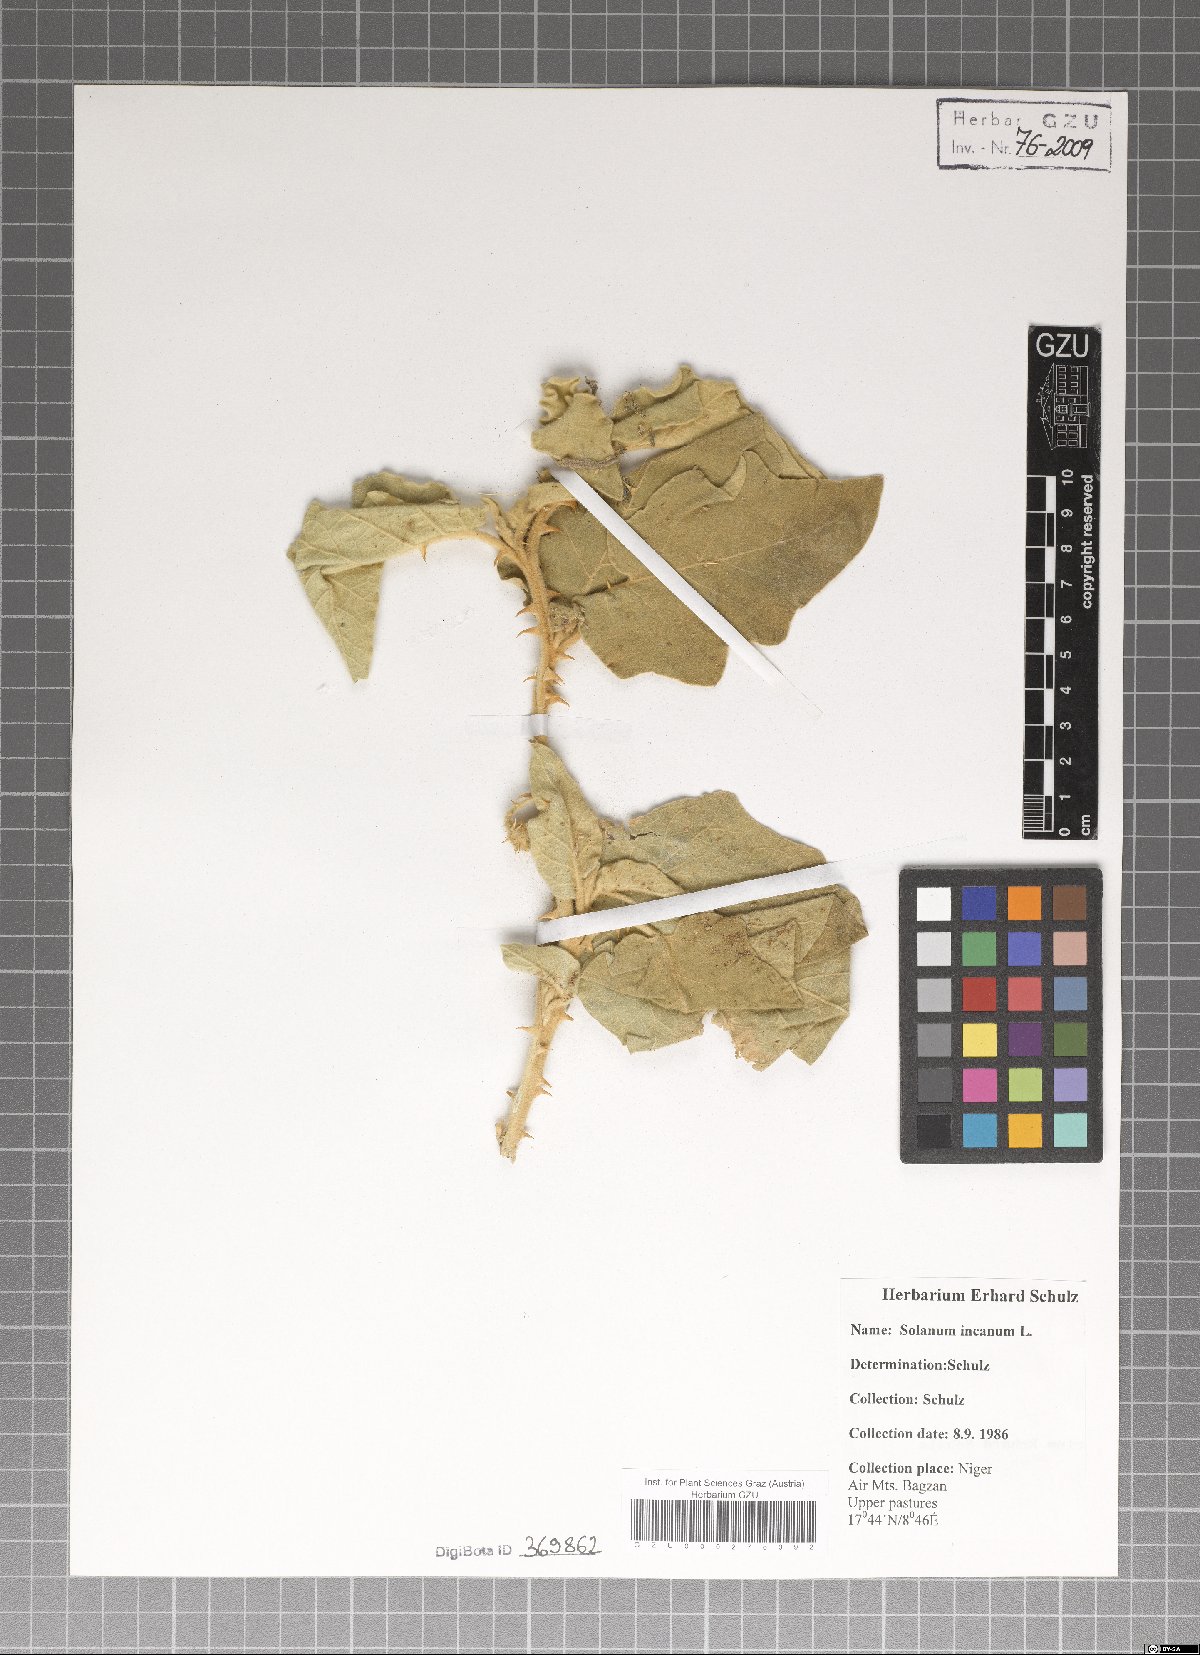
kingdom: Plantae
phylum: Tracheophyta
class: Magnoliopsida
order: Solanales
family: Solanaceae
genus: Solanum
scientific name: Solanum incanum
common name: Bitter apple
